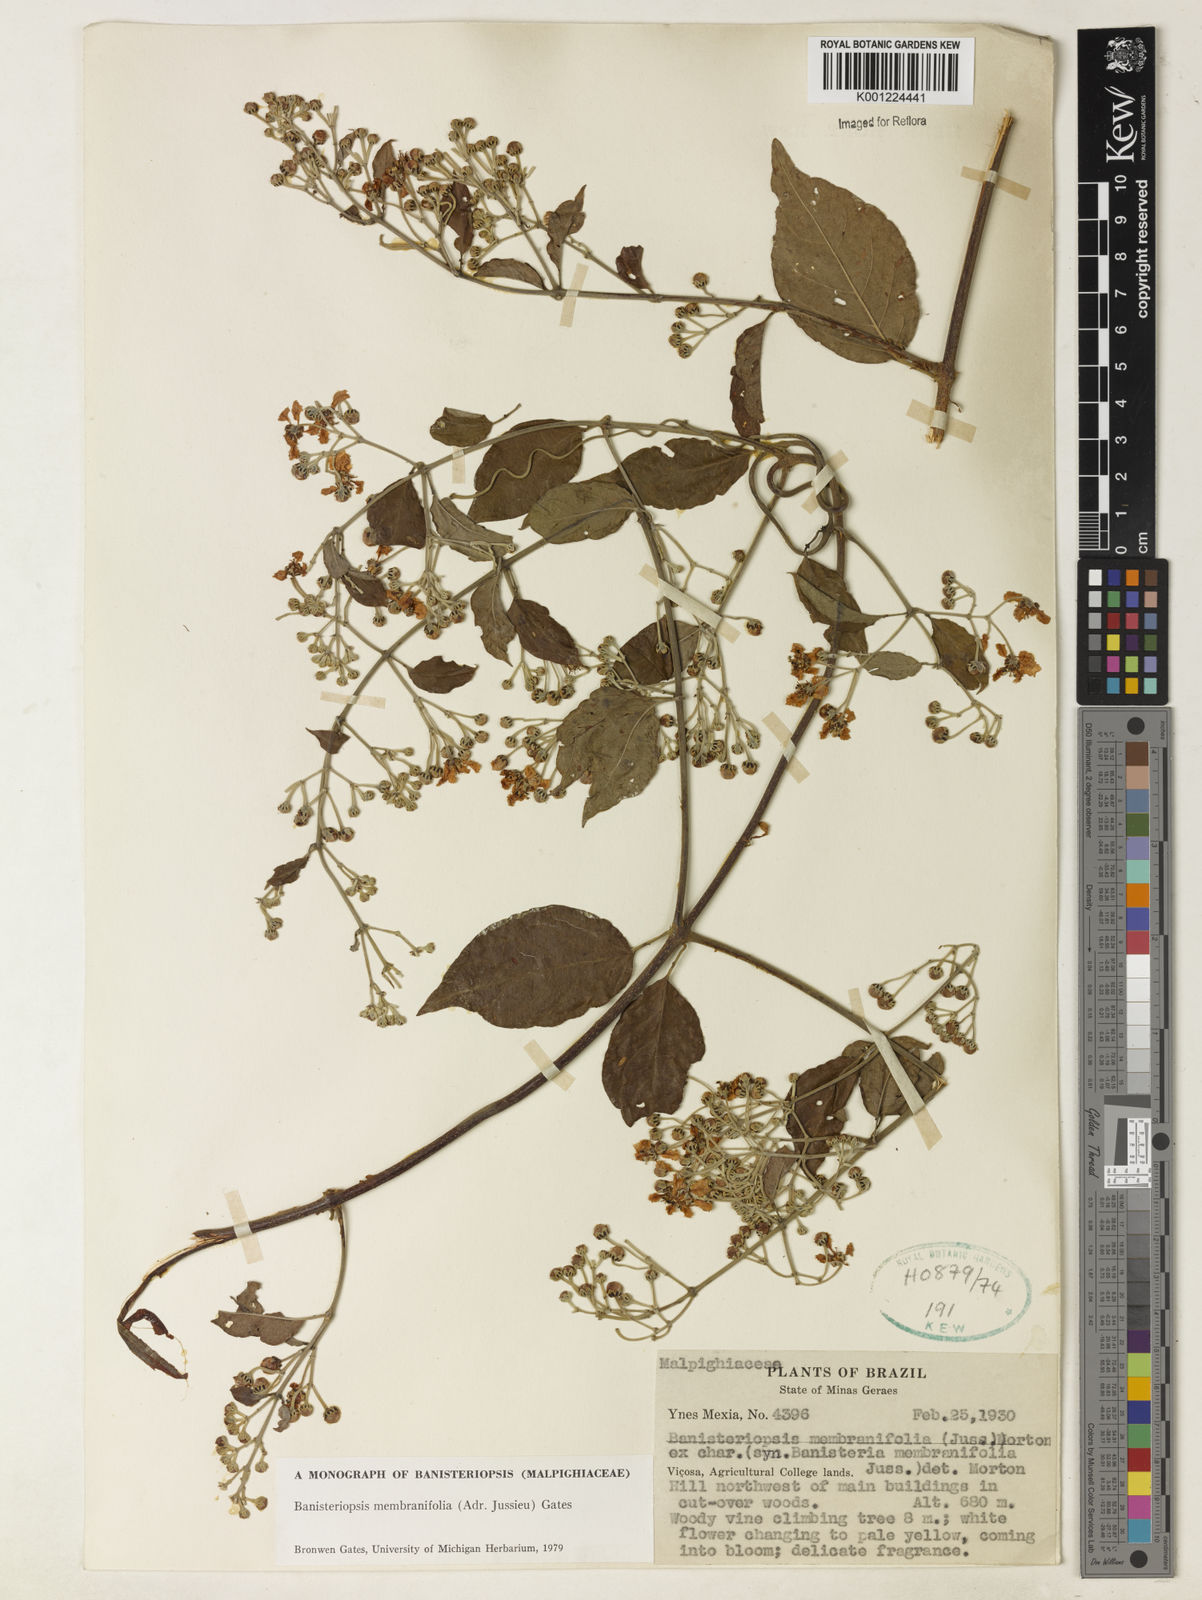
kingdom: Plantae
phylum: Tracheophyta
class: Magnoliopsida
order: Malpighiales
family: Malpighiaceae
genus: Banisteriopsis
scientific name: Banisteriopsis membranifolia
